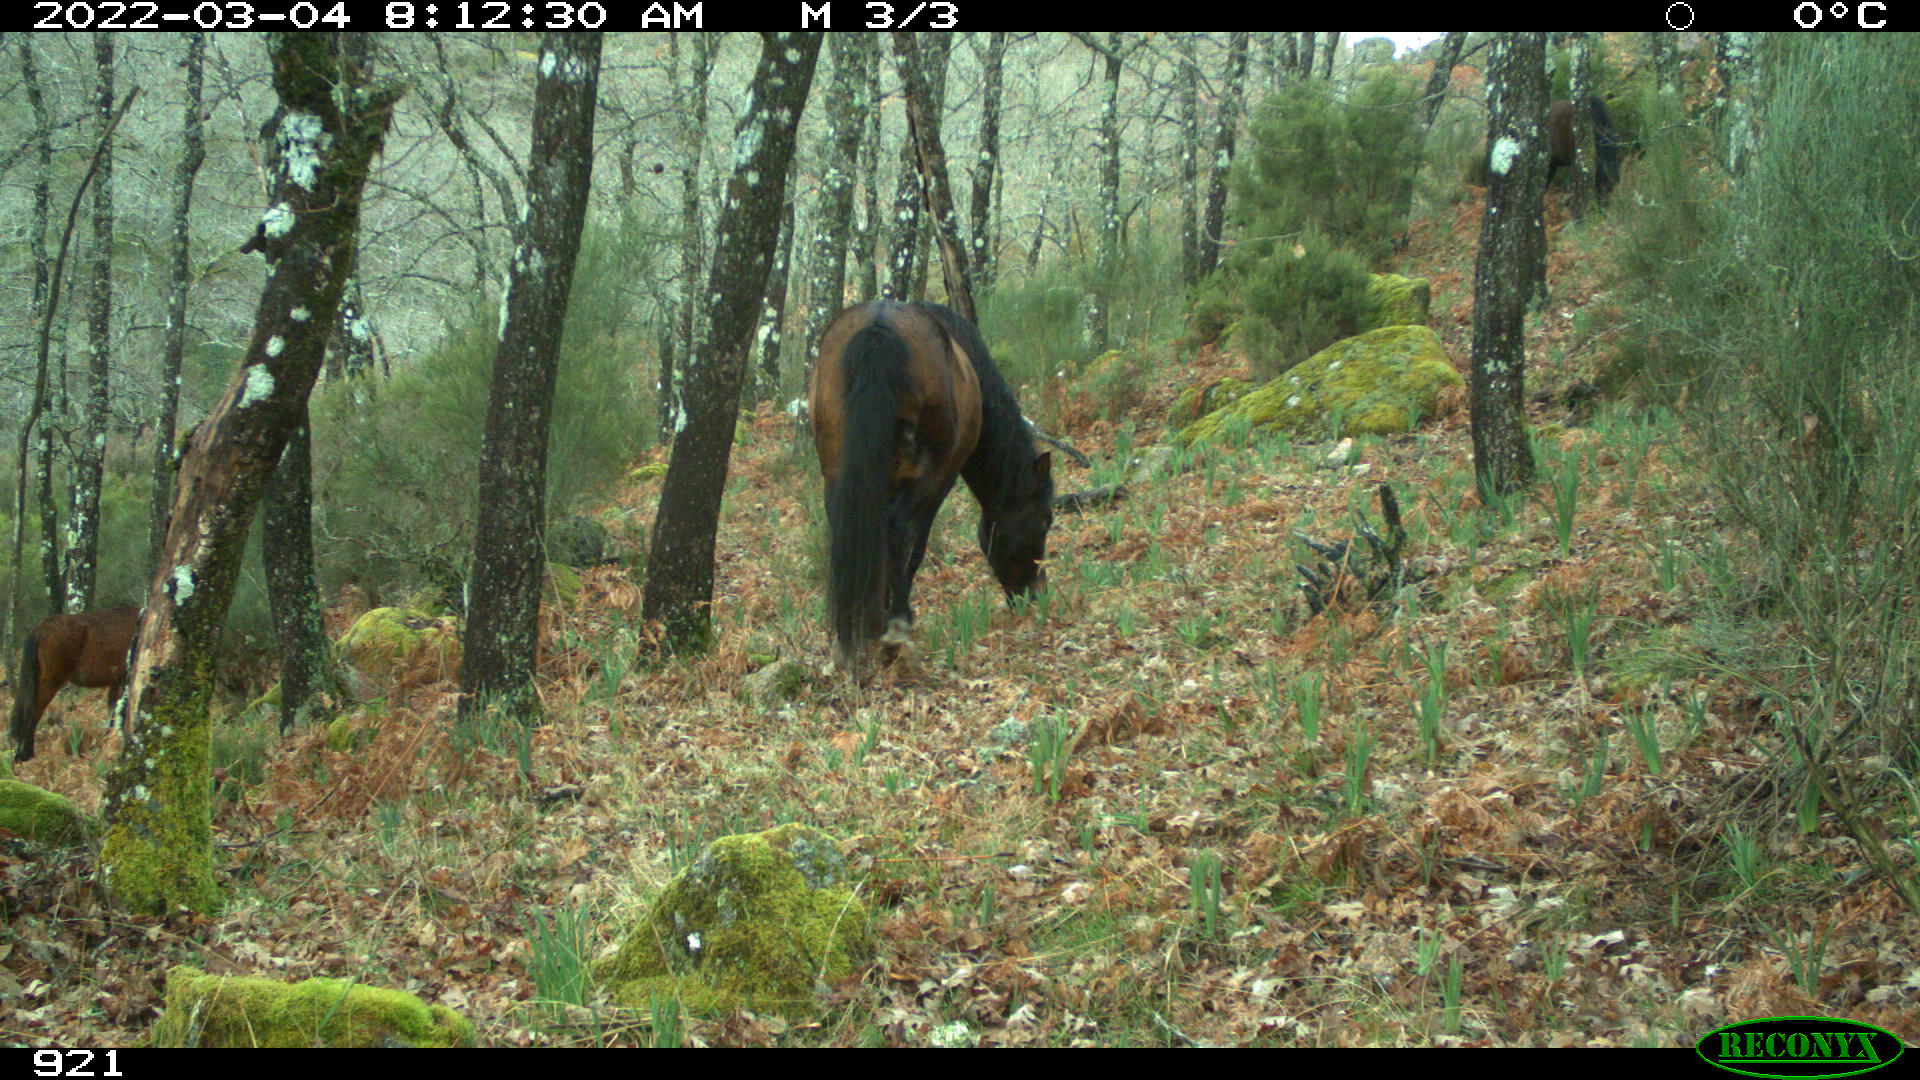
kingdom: Animalia
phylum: Chordata
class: Mammalia
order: Perissodactyla
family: Equidae
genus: Equus
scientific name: Equus caballus
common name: Horse
